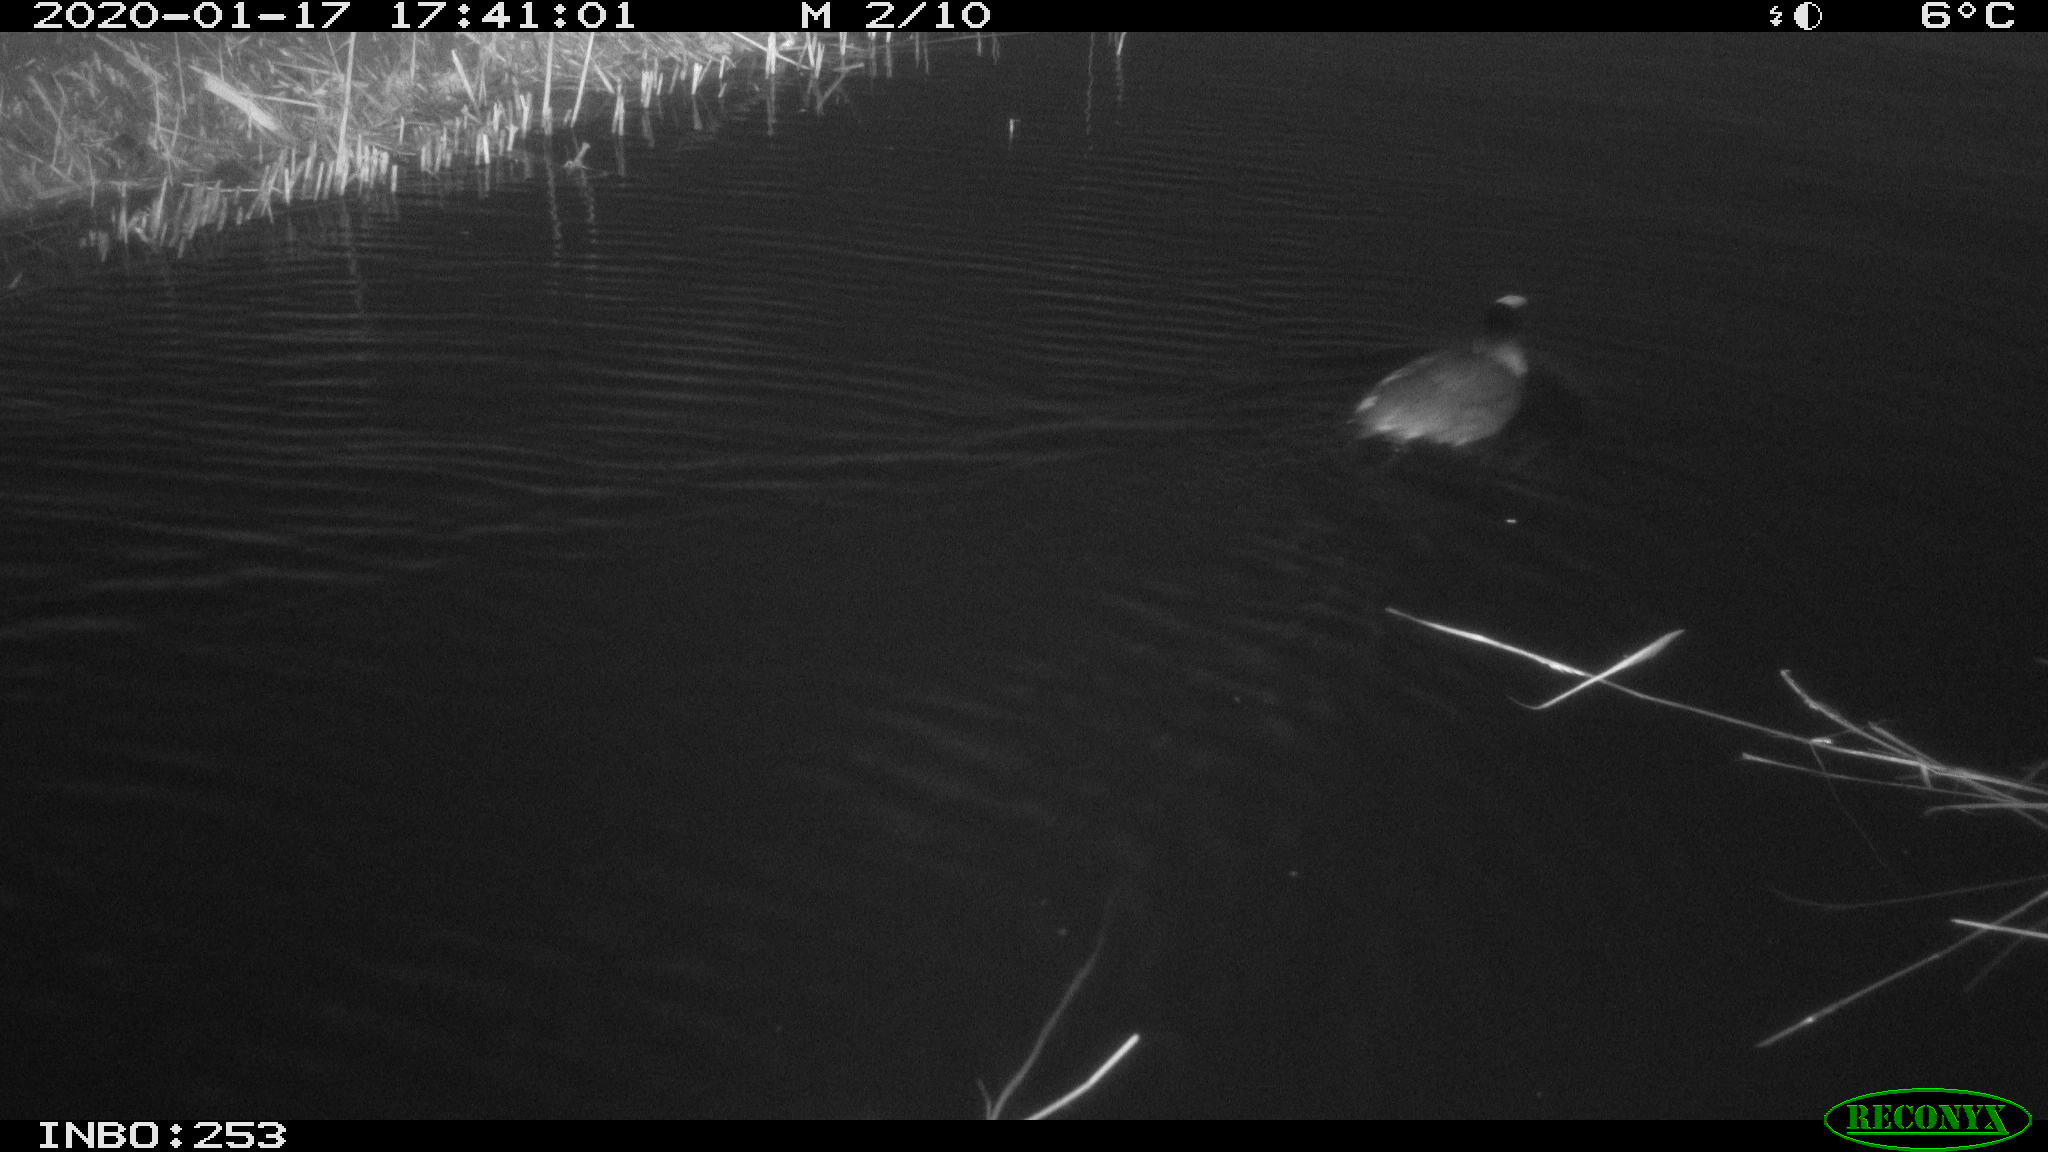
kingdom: Animalia
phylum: Chordata
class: Aves
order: Gruiformes
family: Rallidae
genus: Fulica
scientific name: Fulica atra
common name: Eurasian coot
